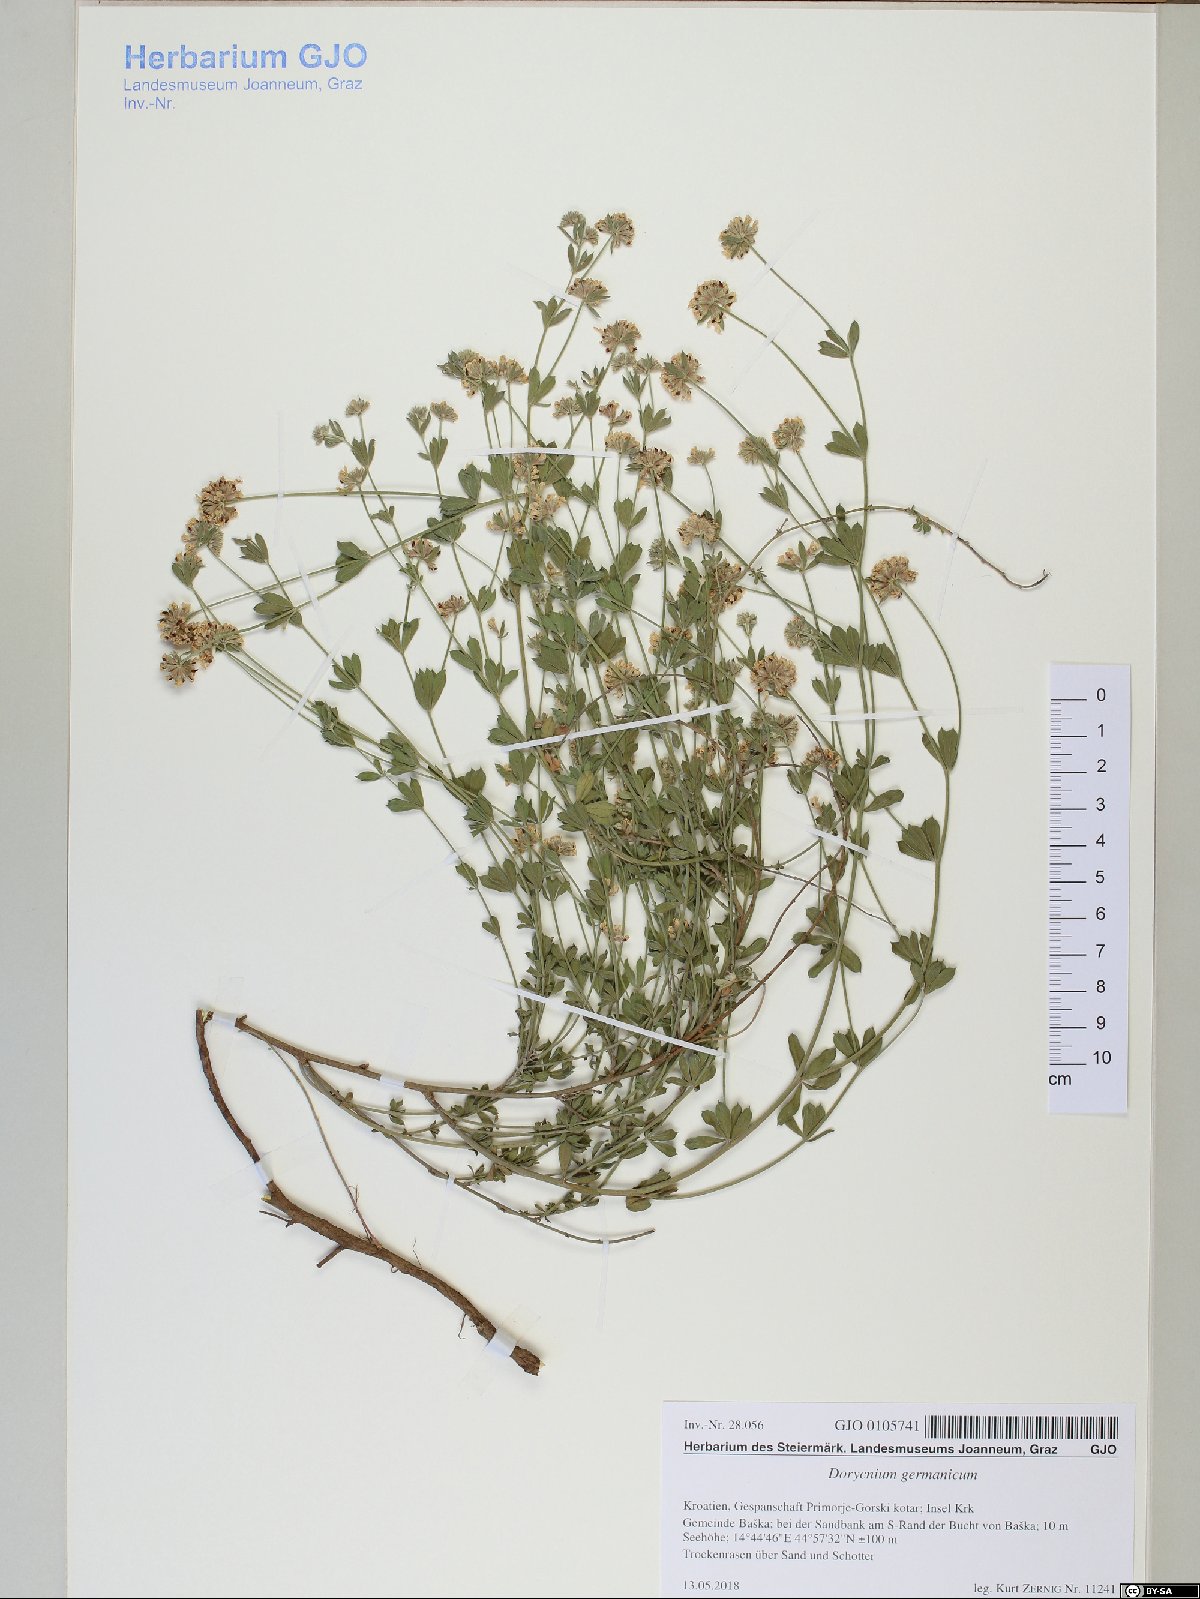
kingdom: Plantae
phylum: Tracheophyta
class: Magnoliopsida
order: Fabales
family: Fabaceae
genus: Lotus
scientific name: Lotus germanicus
